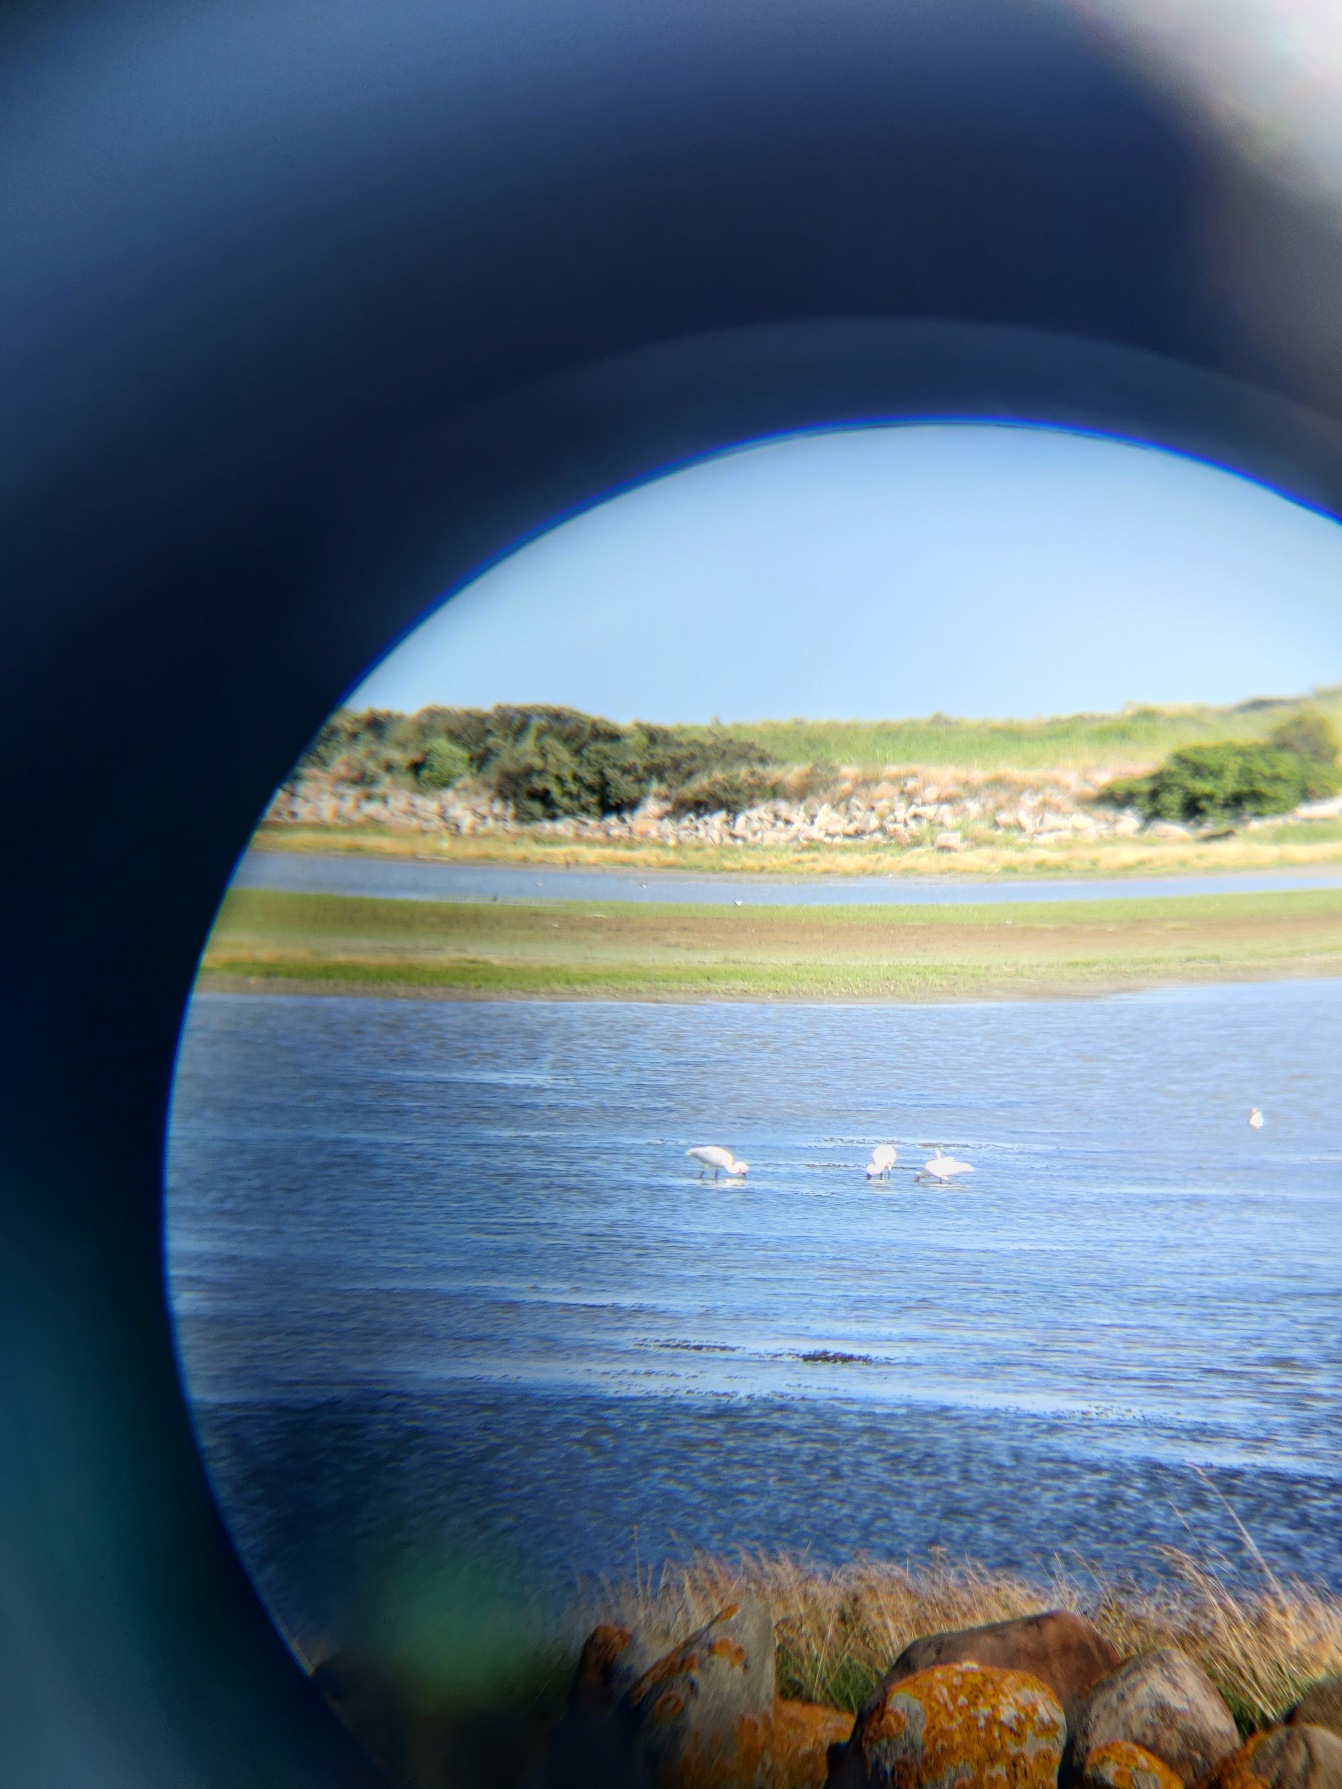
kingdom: Animalia
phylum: Chordata
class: Aves
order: Pelecaniformes
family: Threskiornithidae
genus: Platalea
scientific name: Platalea leucorodia
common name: Skestork
